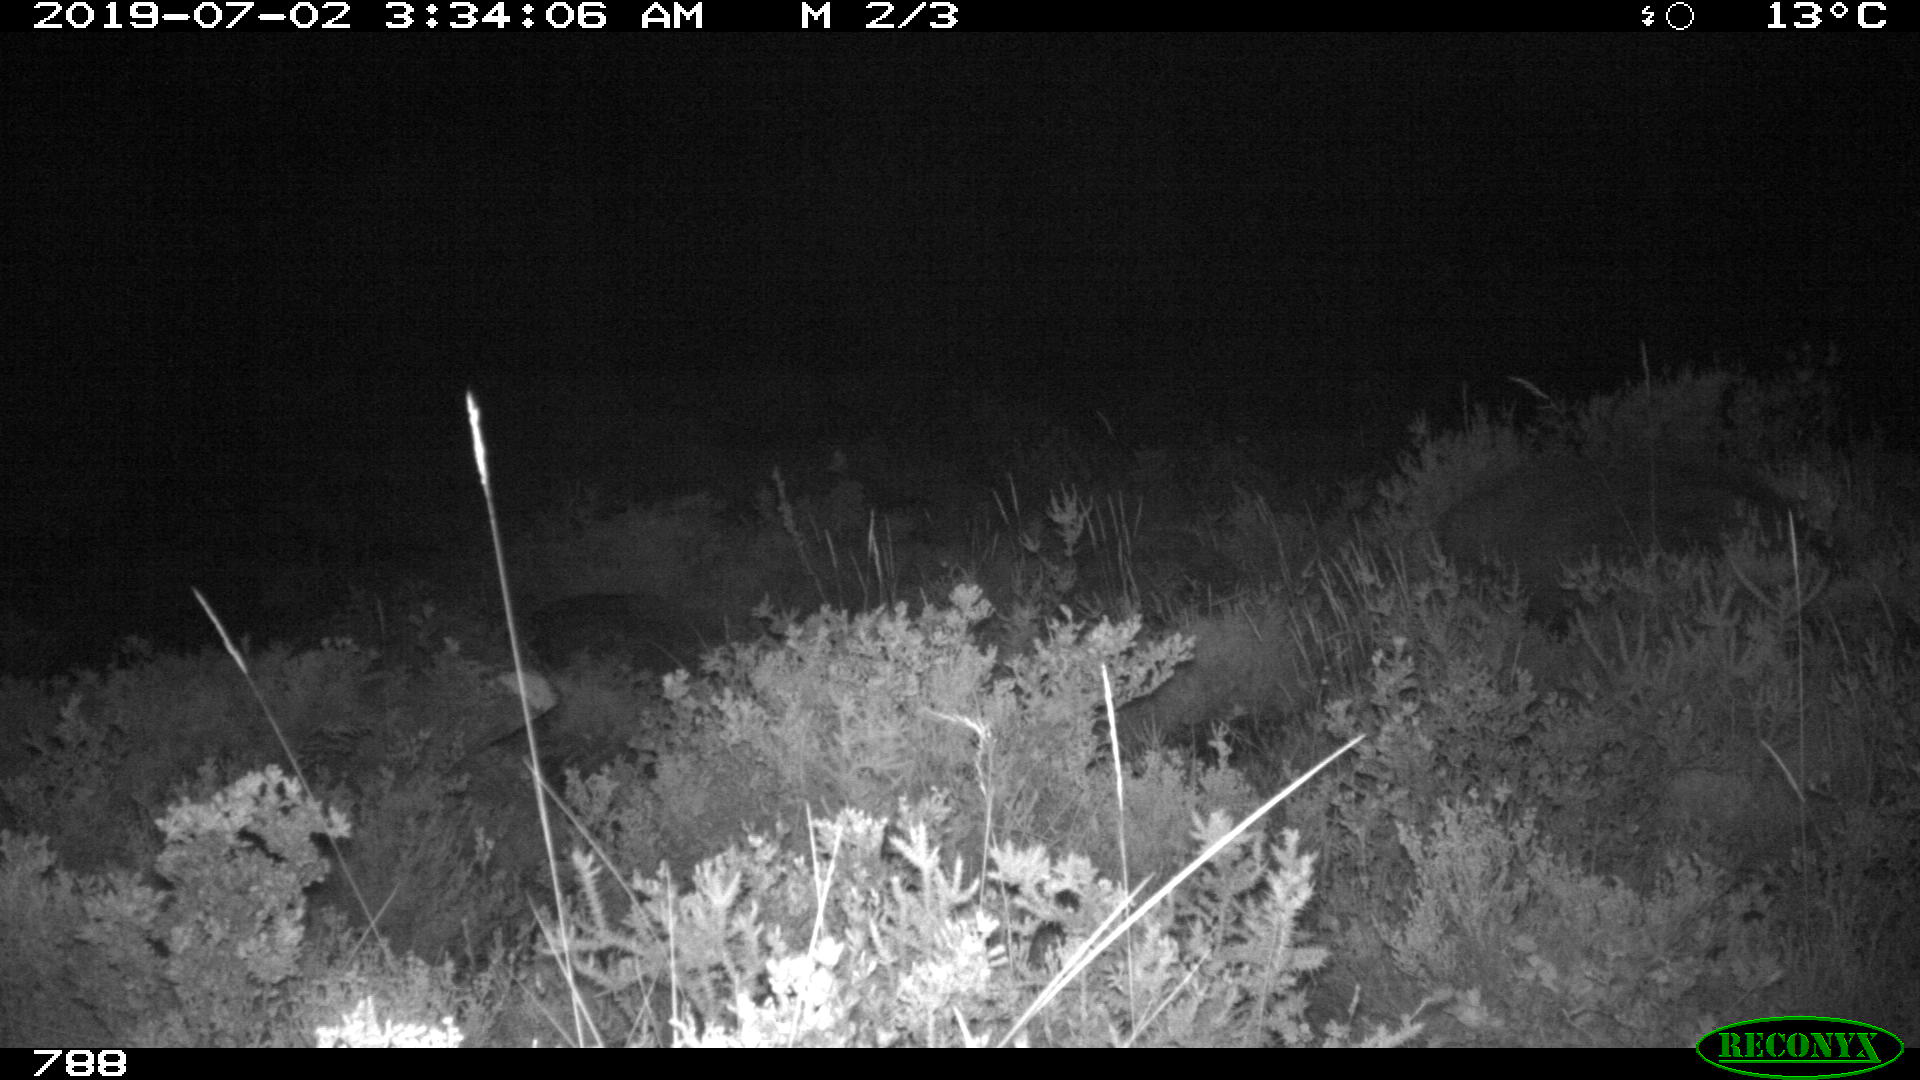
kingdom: Animalia
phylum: Chordata
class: Mammalia
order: Artiodactyla
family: Suidae
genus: Sus
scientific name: Sus scrofa
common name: Wild boar
